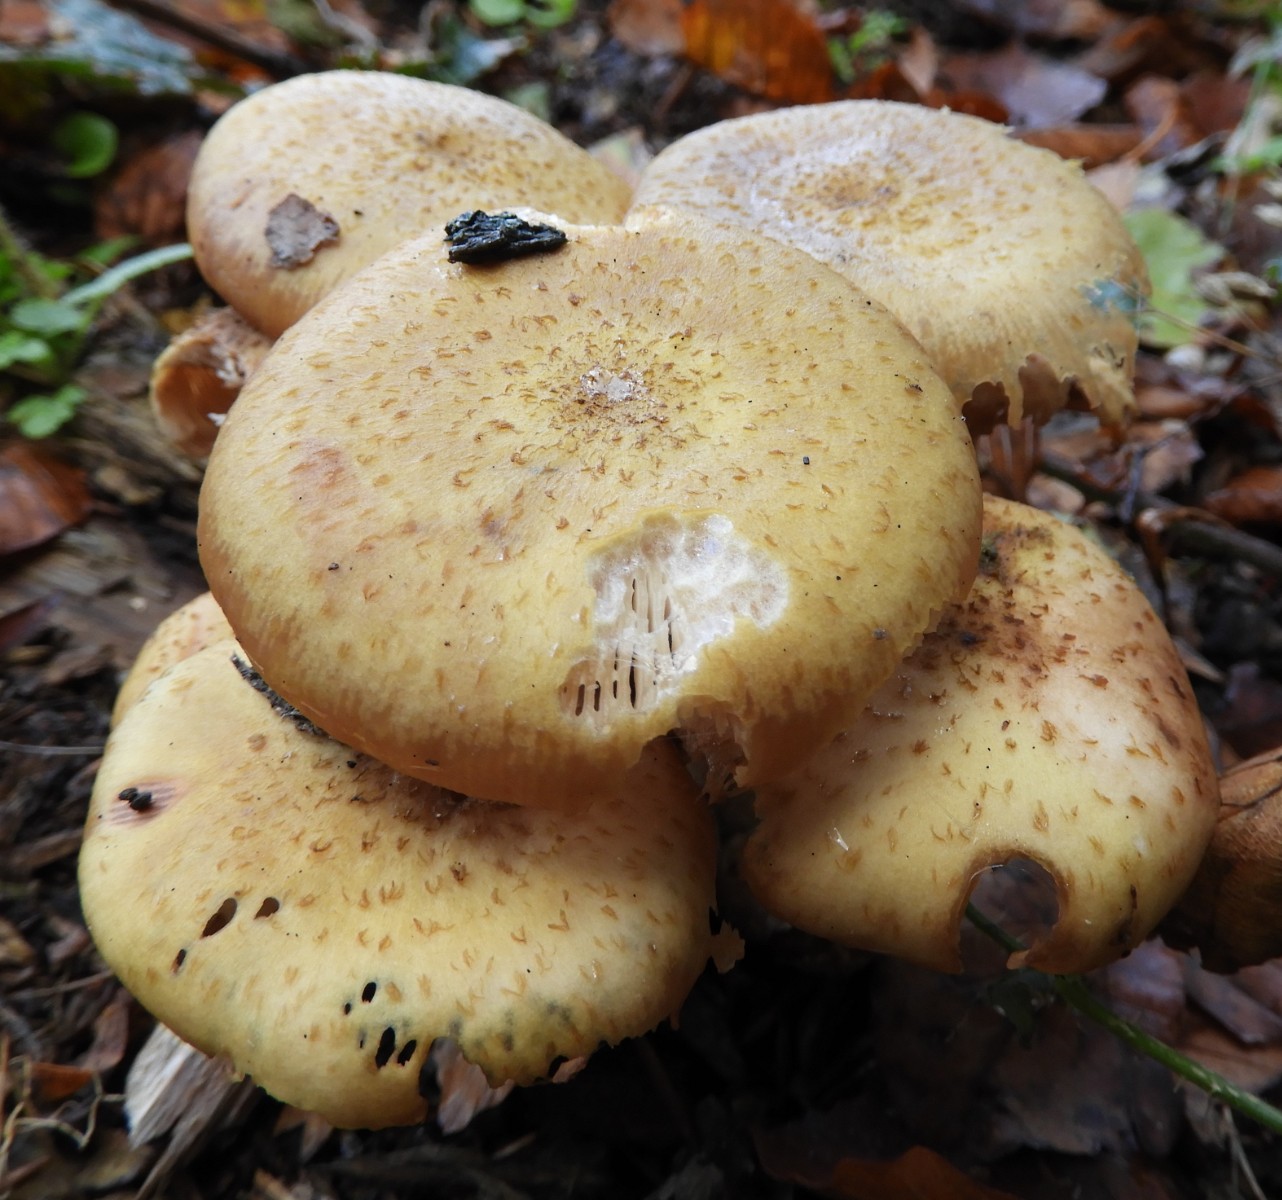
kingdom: Fungi
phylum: Basidiomycota
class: Agaricomycetes
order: Agaricales
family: Physalacriaceae
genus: Armillaria
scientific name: Armillaria lutea
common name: køllestokket honningsvamp
